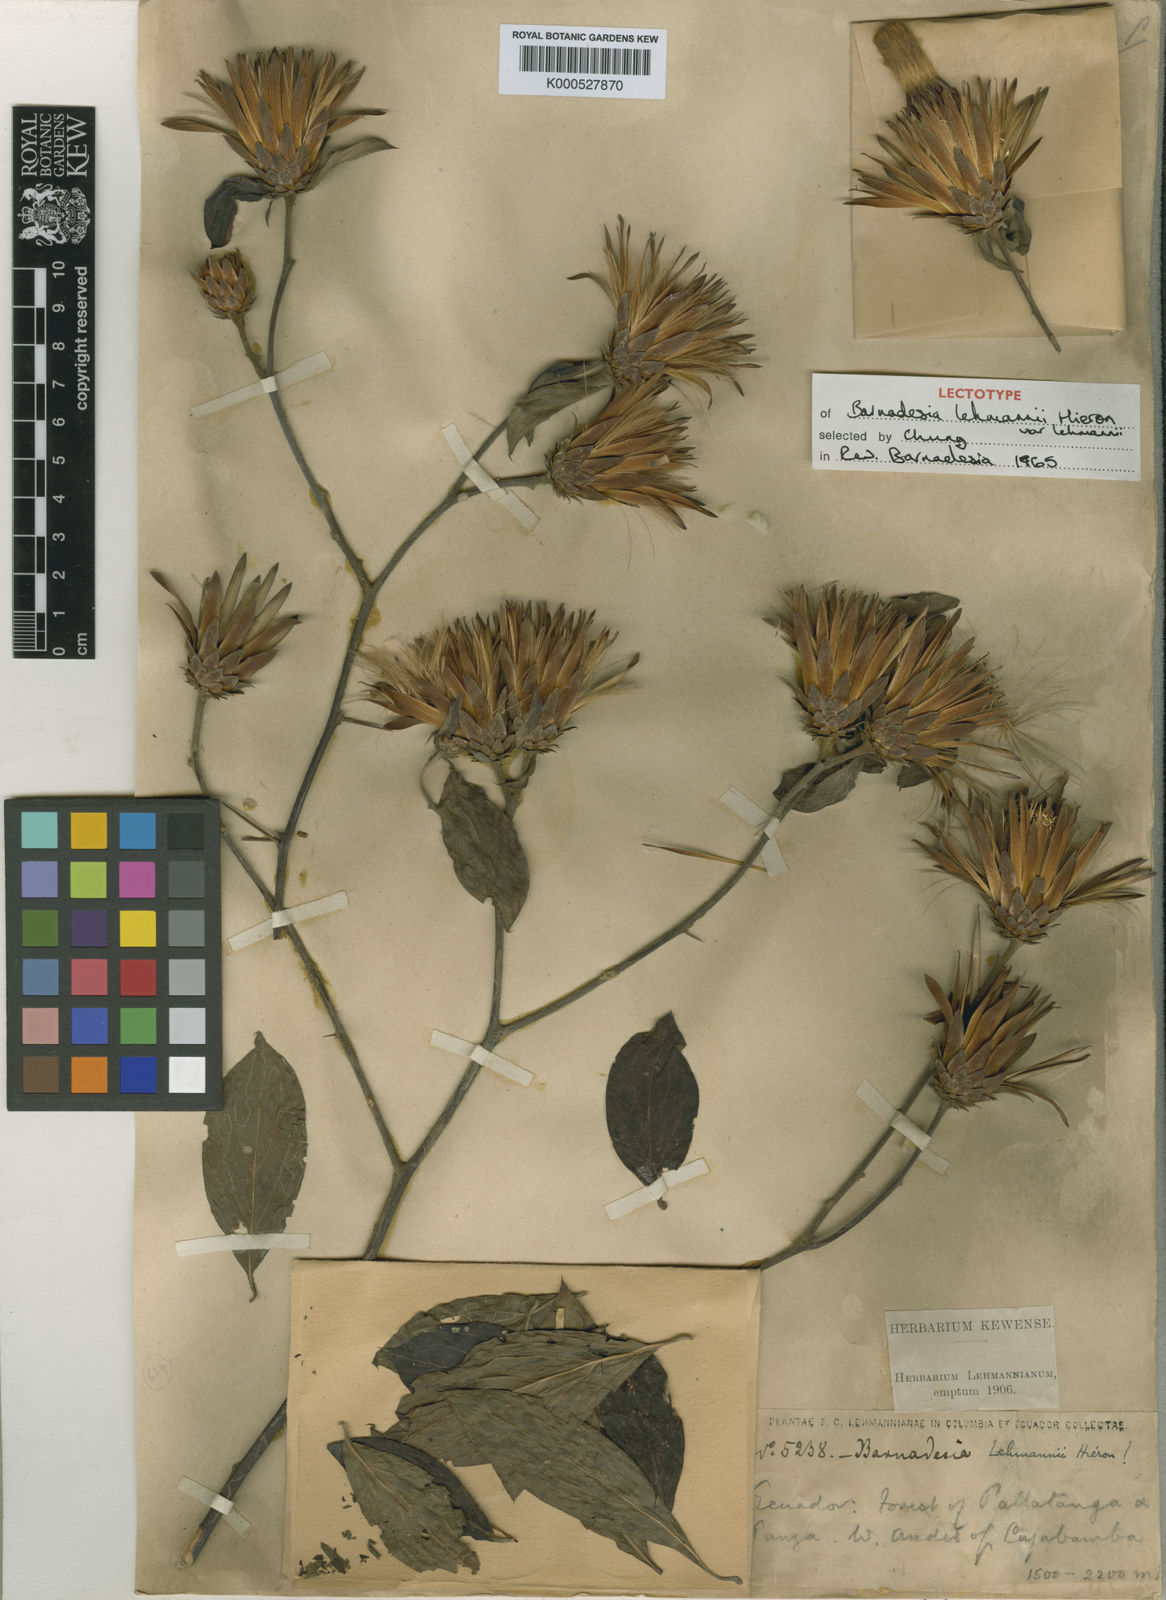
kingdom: Plantae
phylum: Tracheophyta
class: Magnoliopsida
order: Asterales
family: Asteraceae
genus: Barnadesia
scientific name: Barnadesia lehmannii
